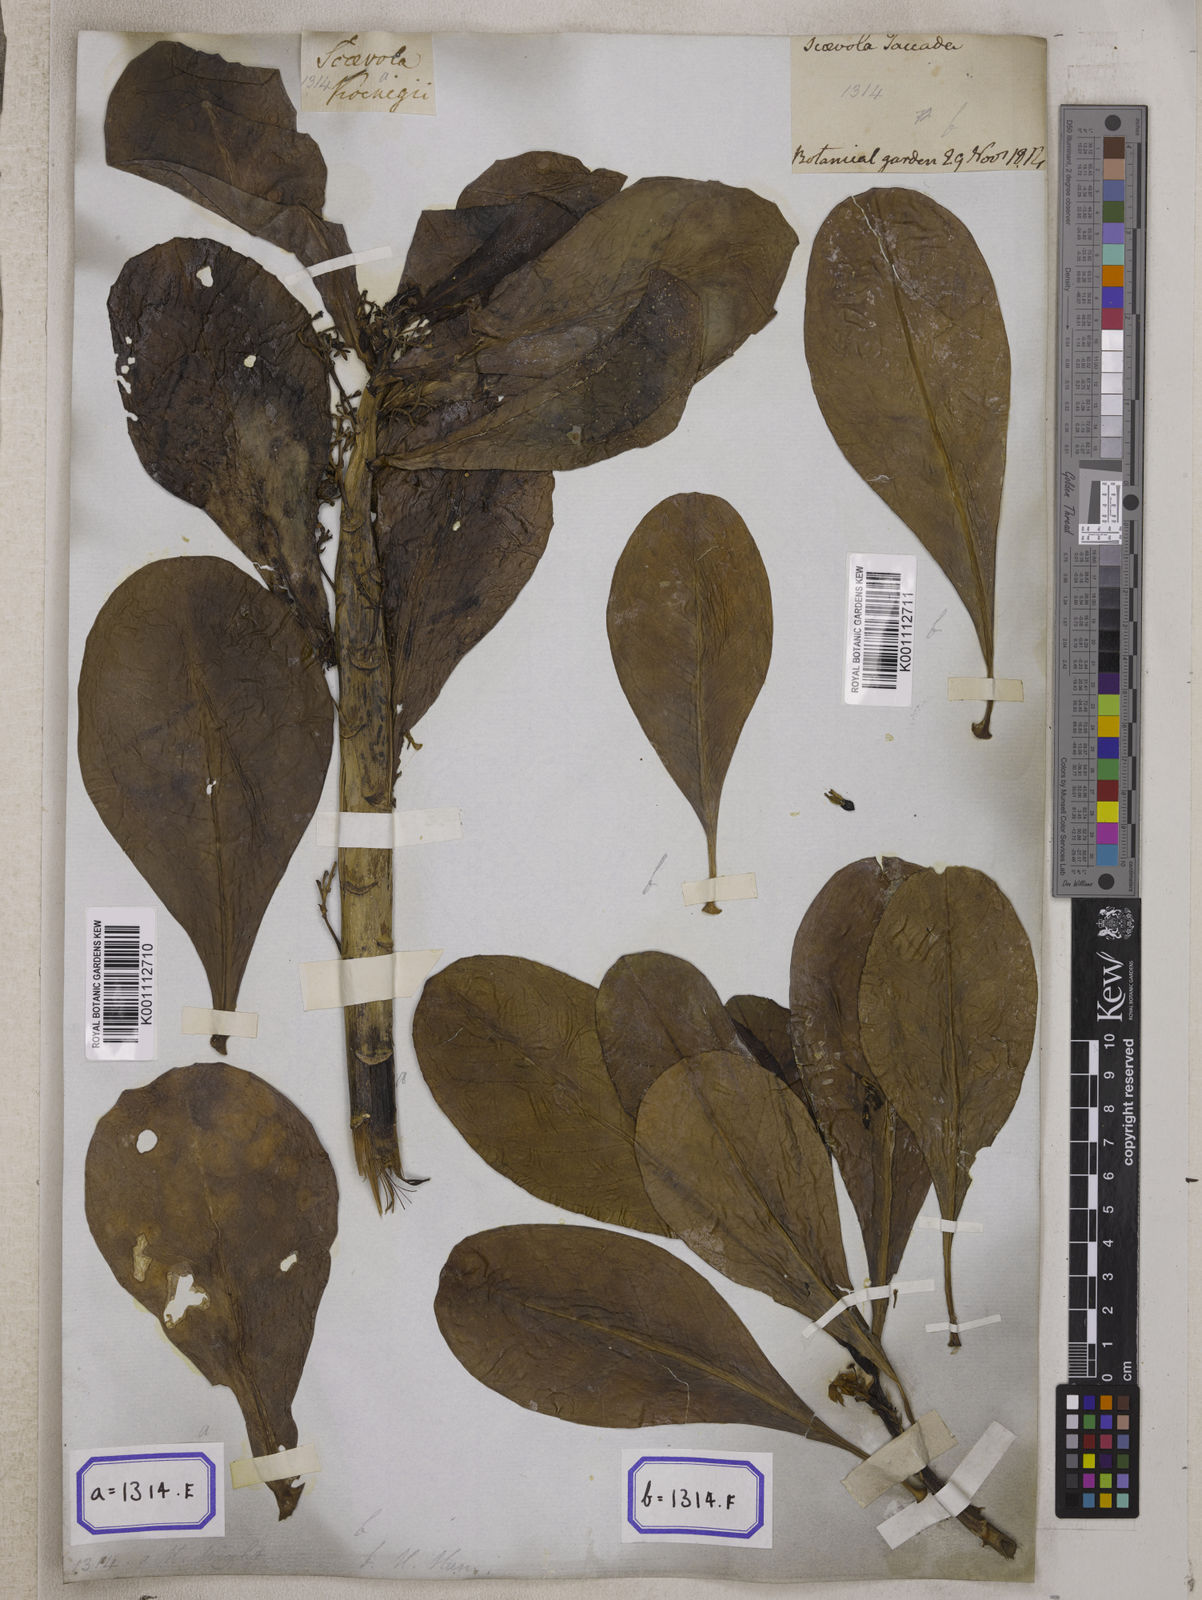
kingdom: Plantae
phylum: Tracheophyta
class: Magnoliopsida
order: Asterales
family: Goodeniaceae
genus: Scaevola
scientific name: Scaevola taccada
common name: Sea lettucetree
